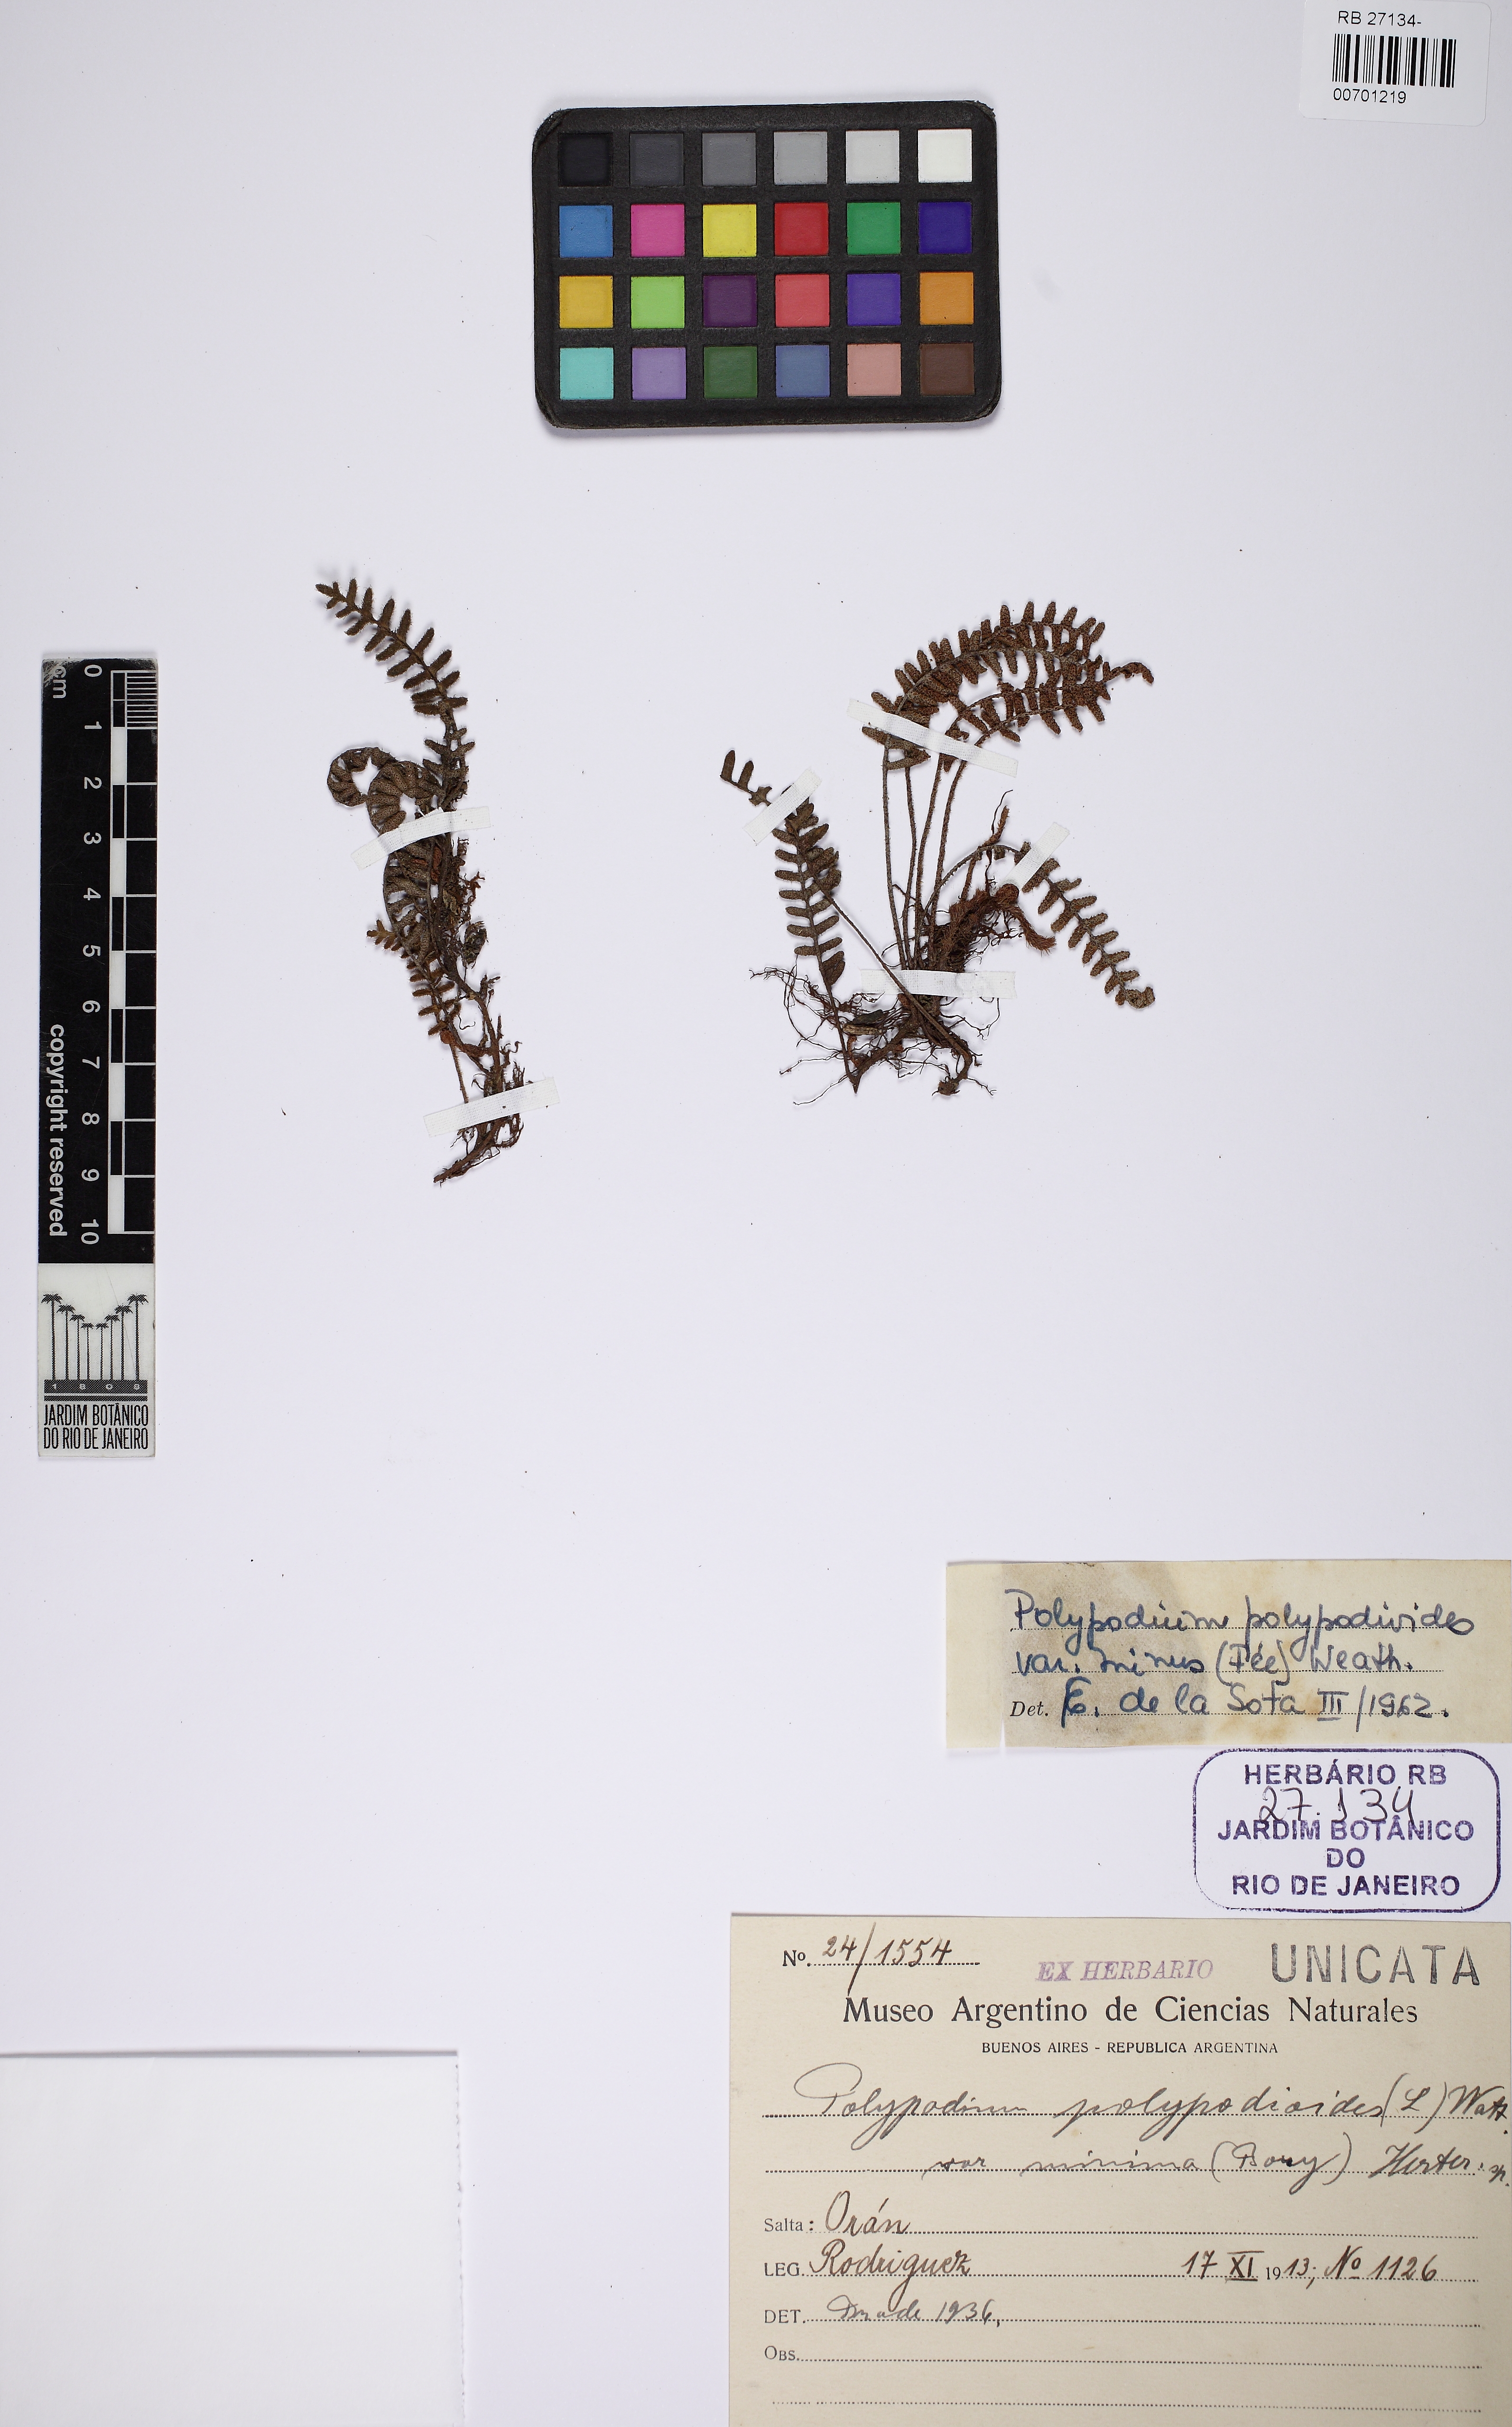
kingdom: Plantae
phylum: Tracheophyta
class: Polypodiopsida
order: Polypodiales
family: Polypodiaceae
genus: Pleopeltis
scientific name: Pleopeltis minima
